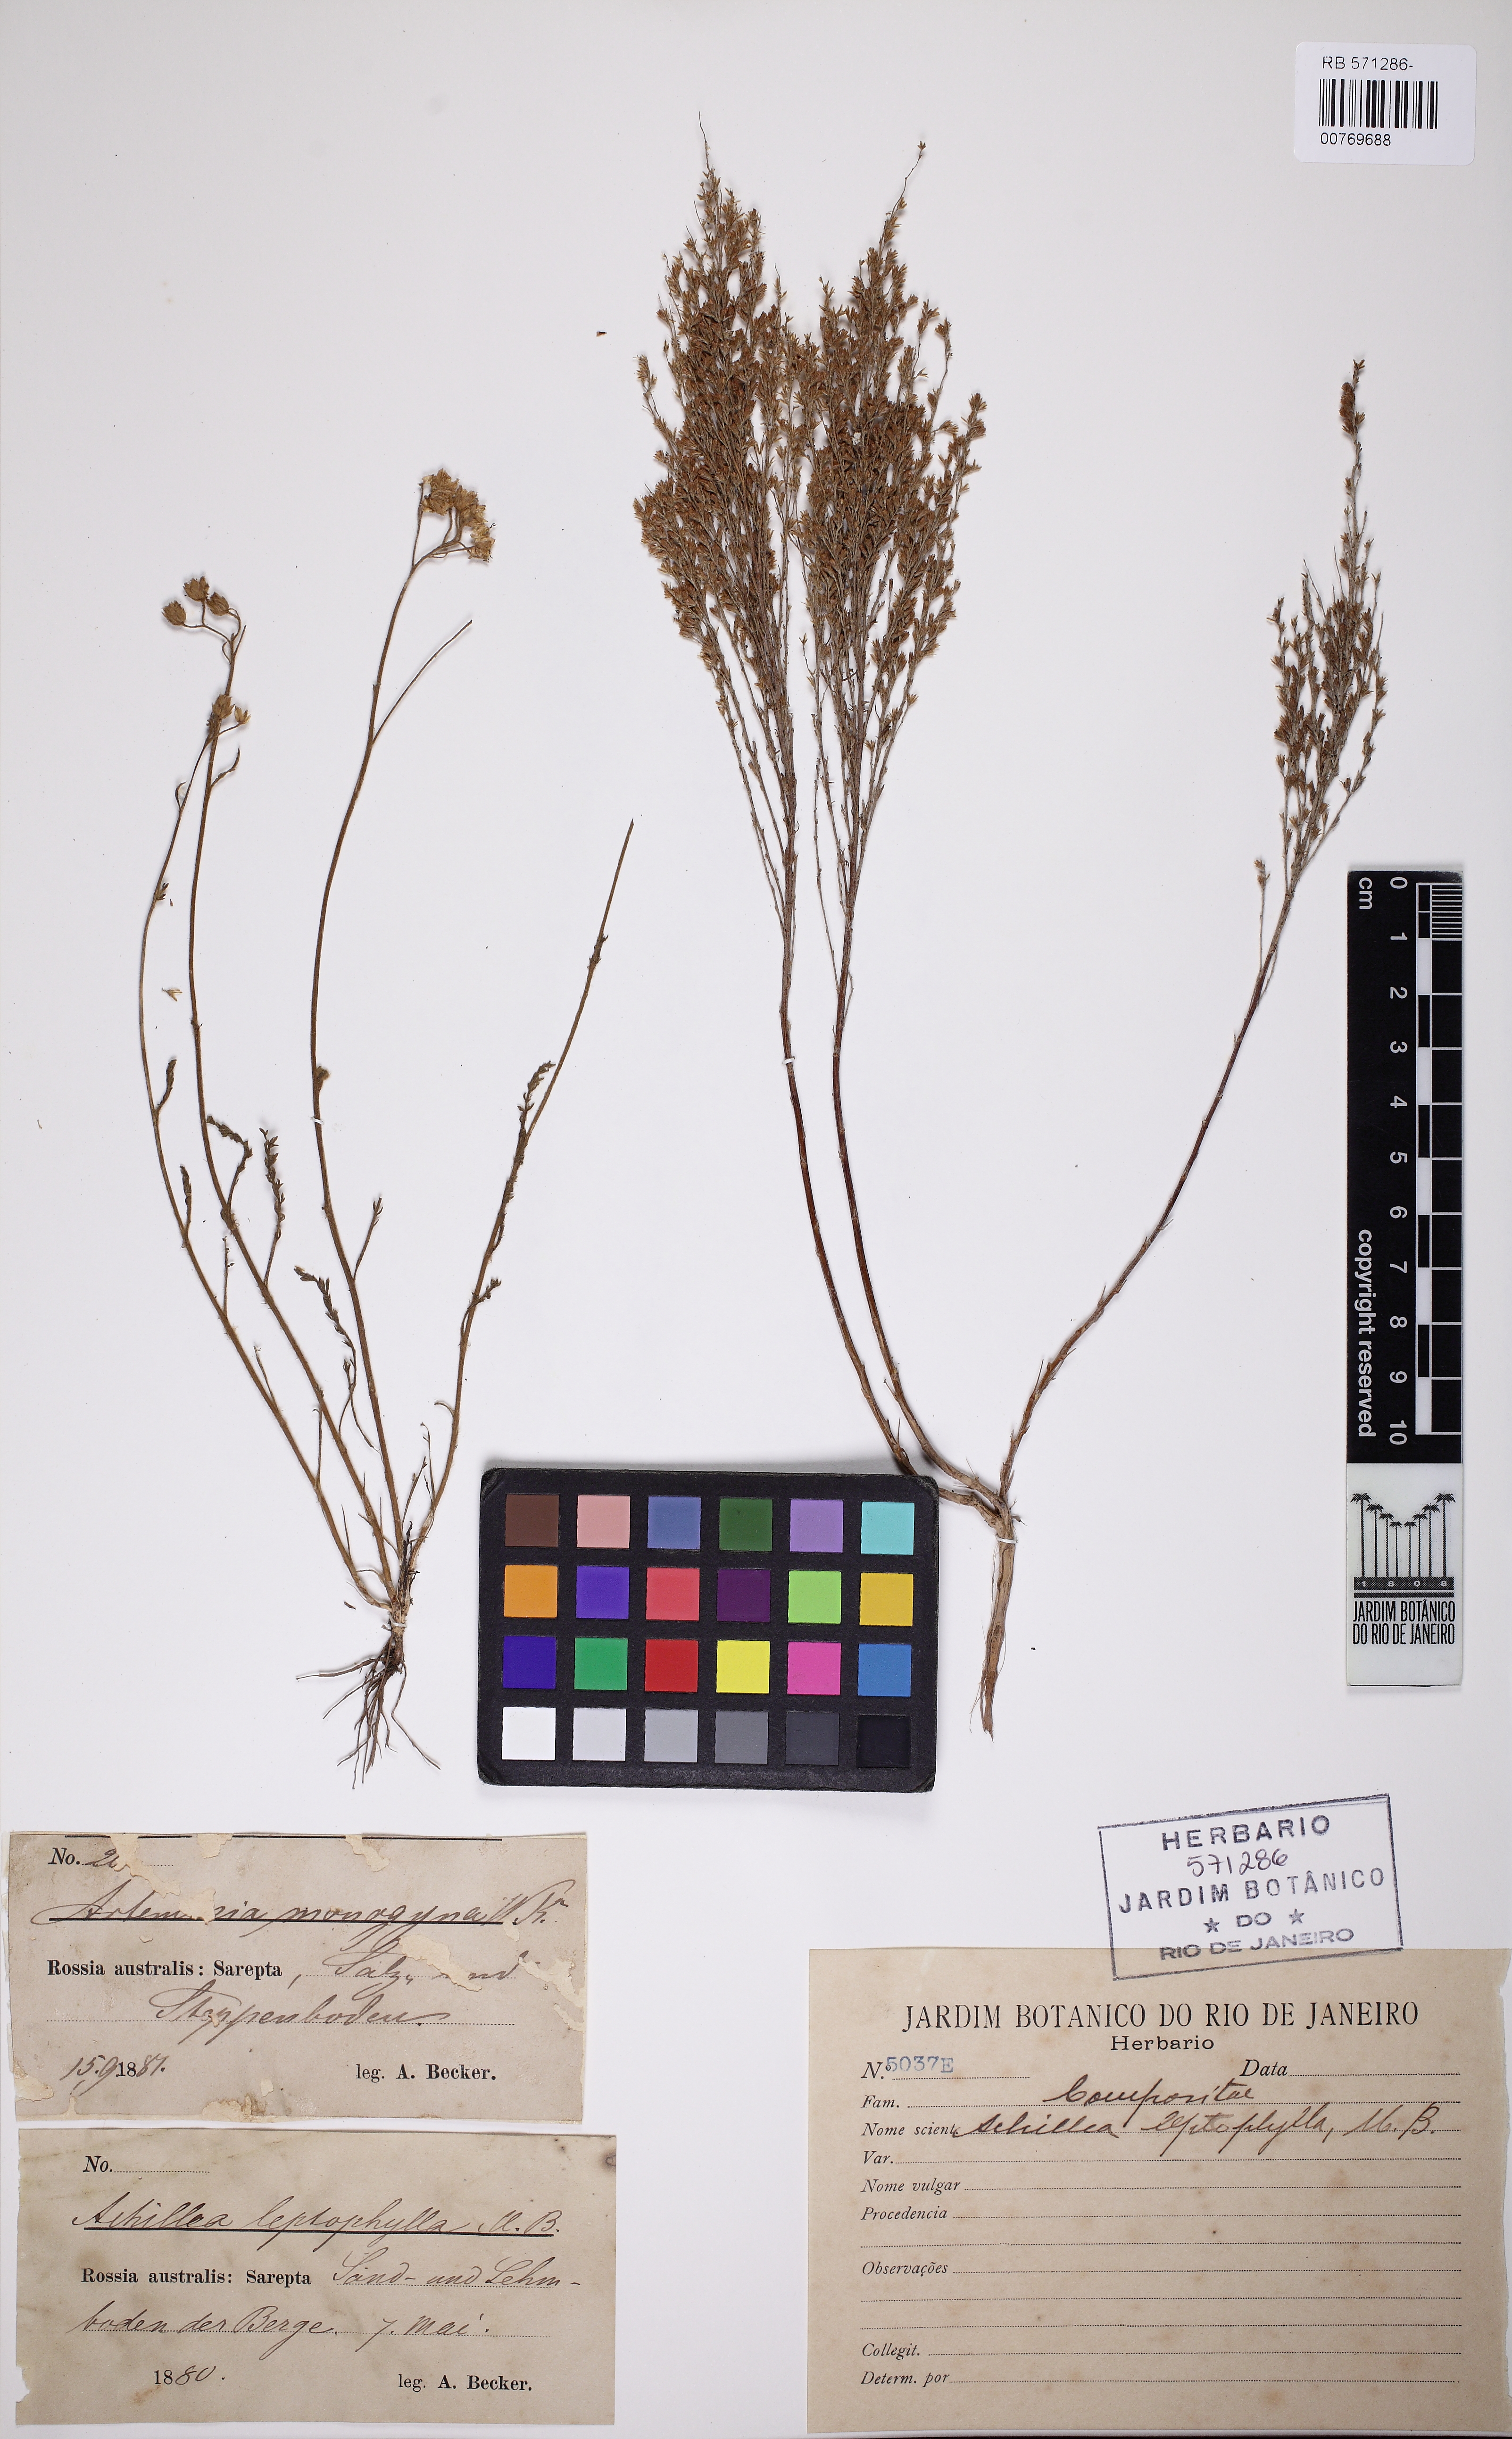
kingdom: Plantae
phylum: Tracheophyta
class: Magnoliopsida
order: Asterales
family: Asteraceae
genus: Artemisia
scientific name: Artemisia santonicum
